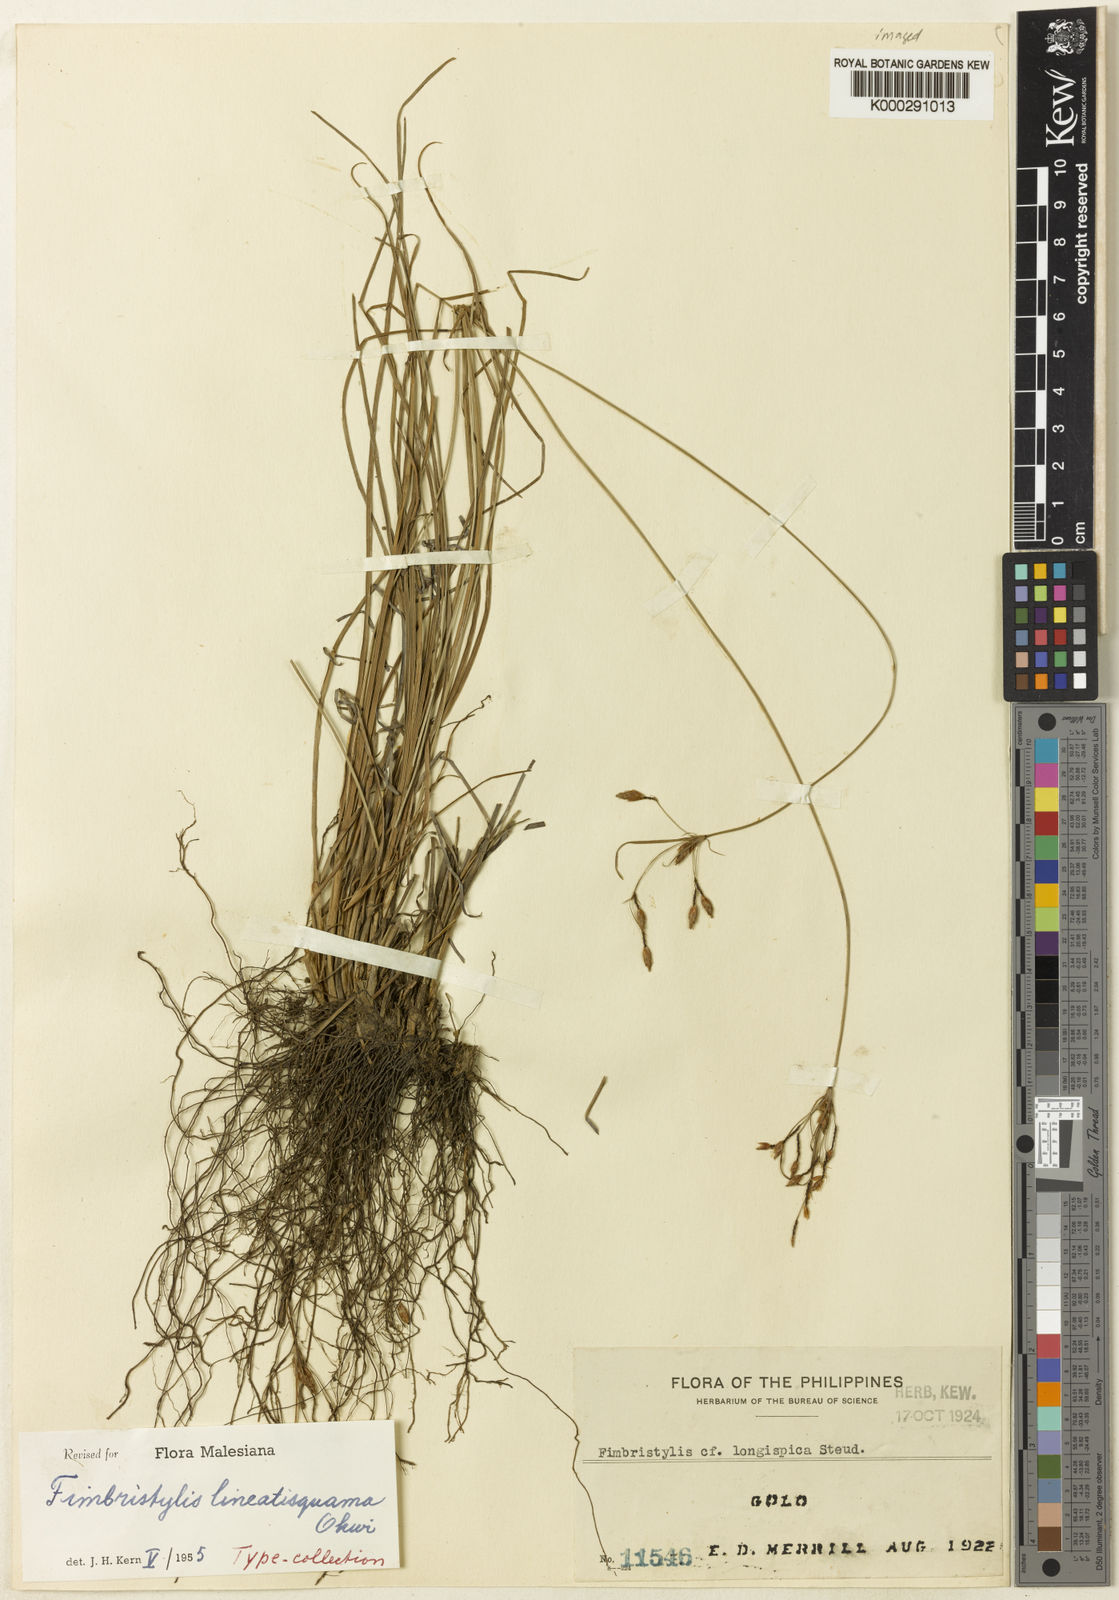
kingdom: Plantae
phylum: Tracheophyta
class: Liliopsida
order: Poales
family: Cyperaceae
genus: Fimbristylis
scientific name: Fimbristylis lineatisquama
